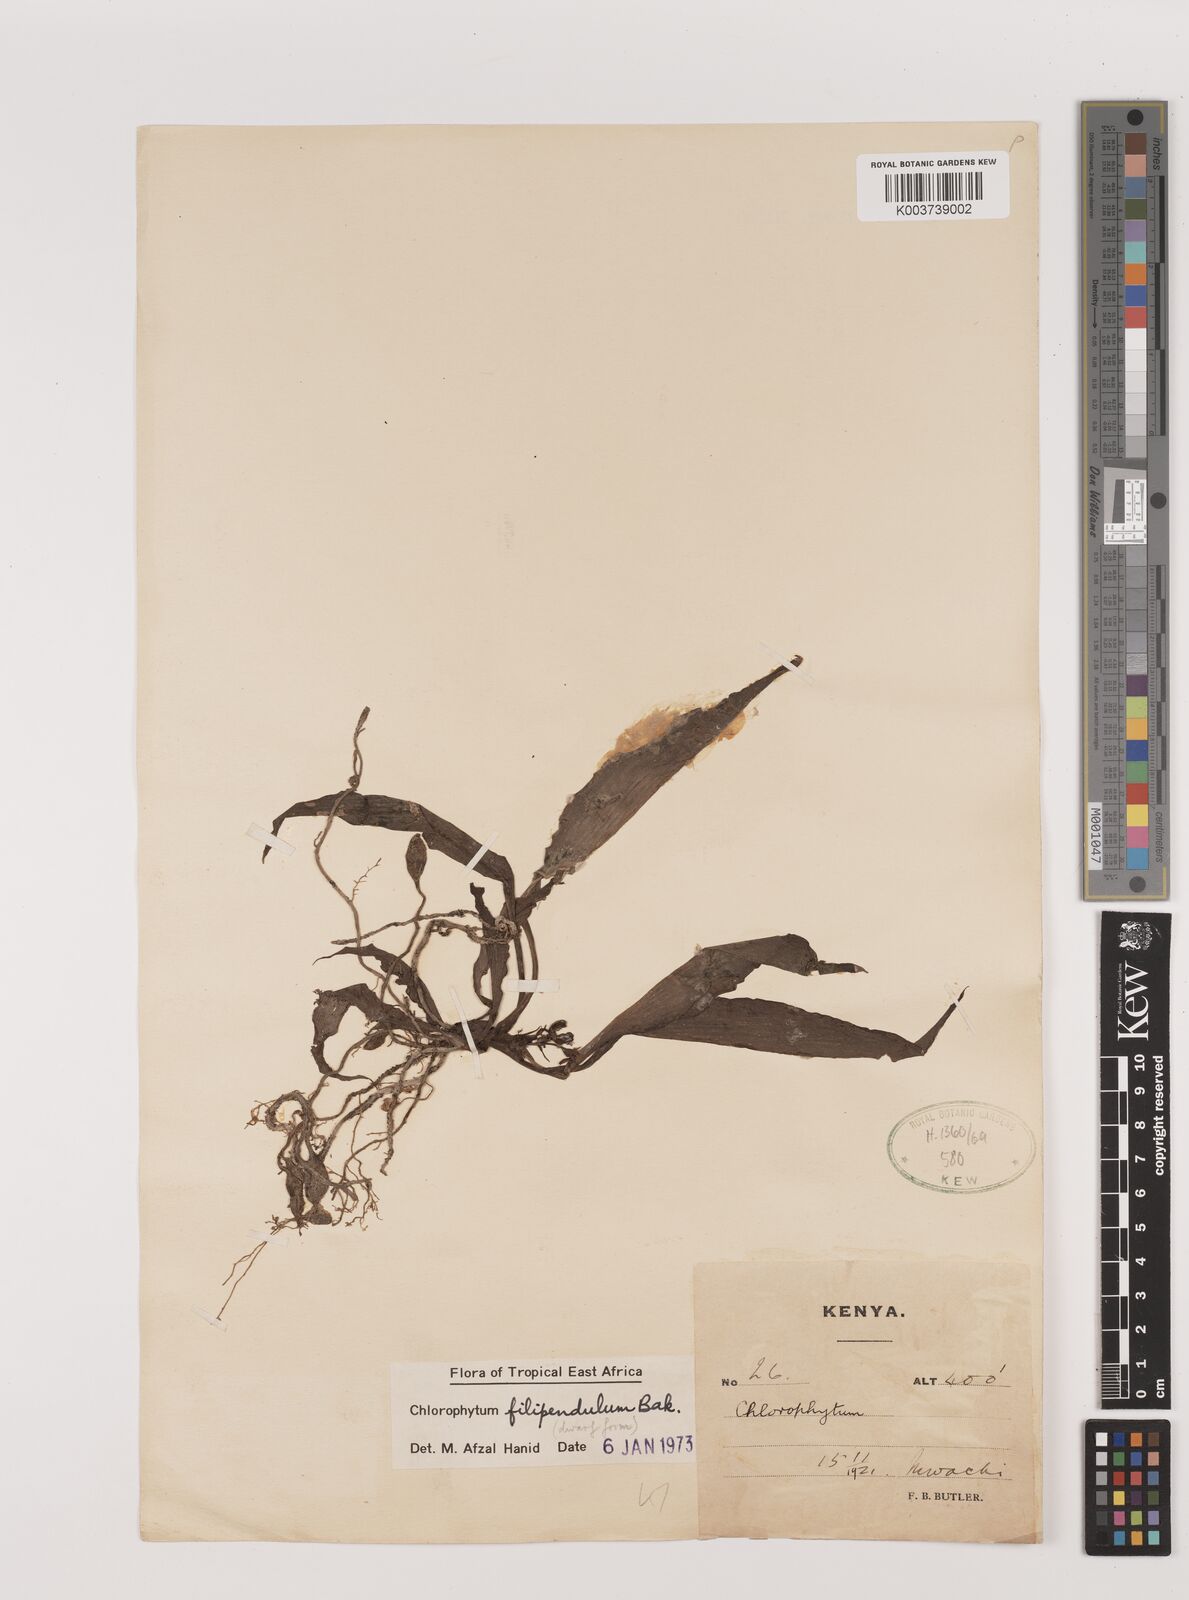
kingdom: Plantae
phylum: Tracheophyta
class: Liliopsida
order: Asparagales
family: Asparagaceae
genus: Chlorophytum
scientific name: Chlorophytum filipendulum
